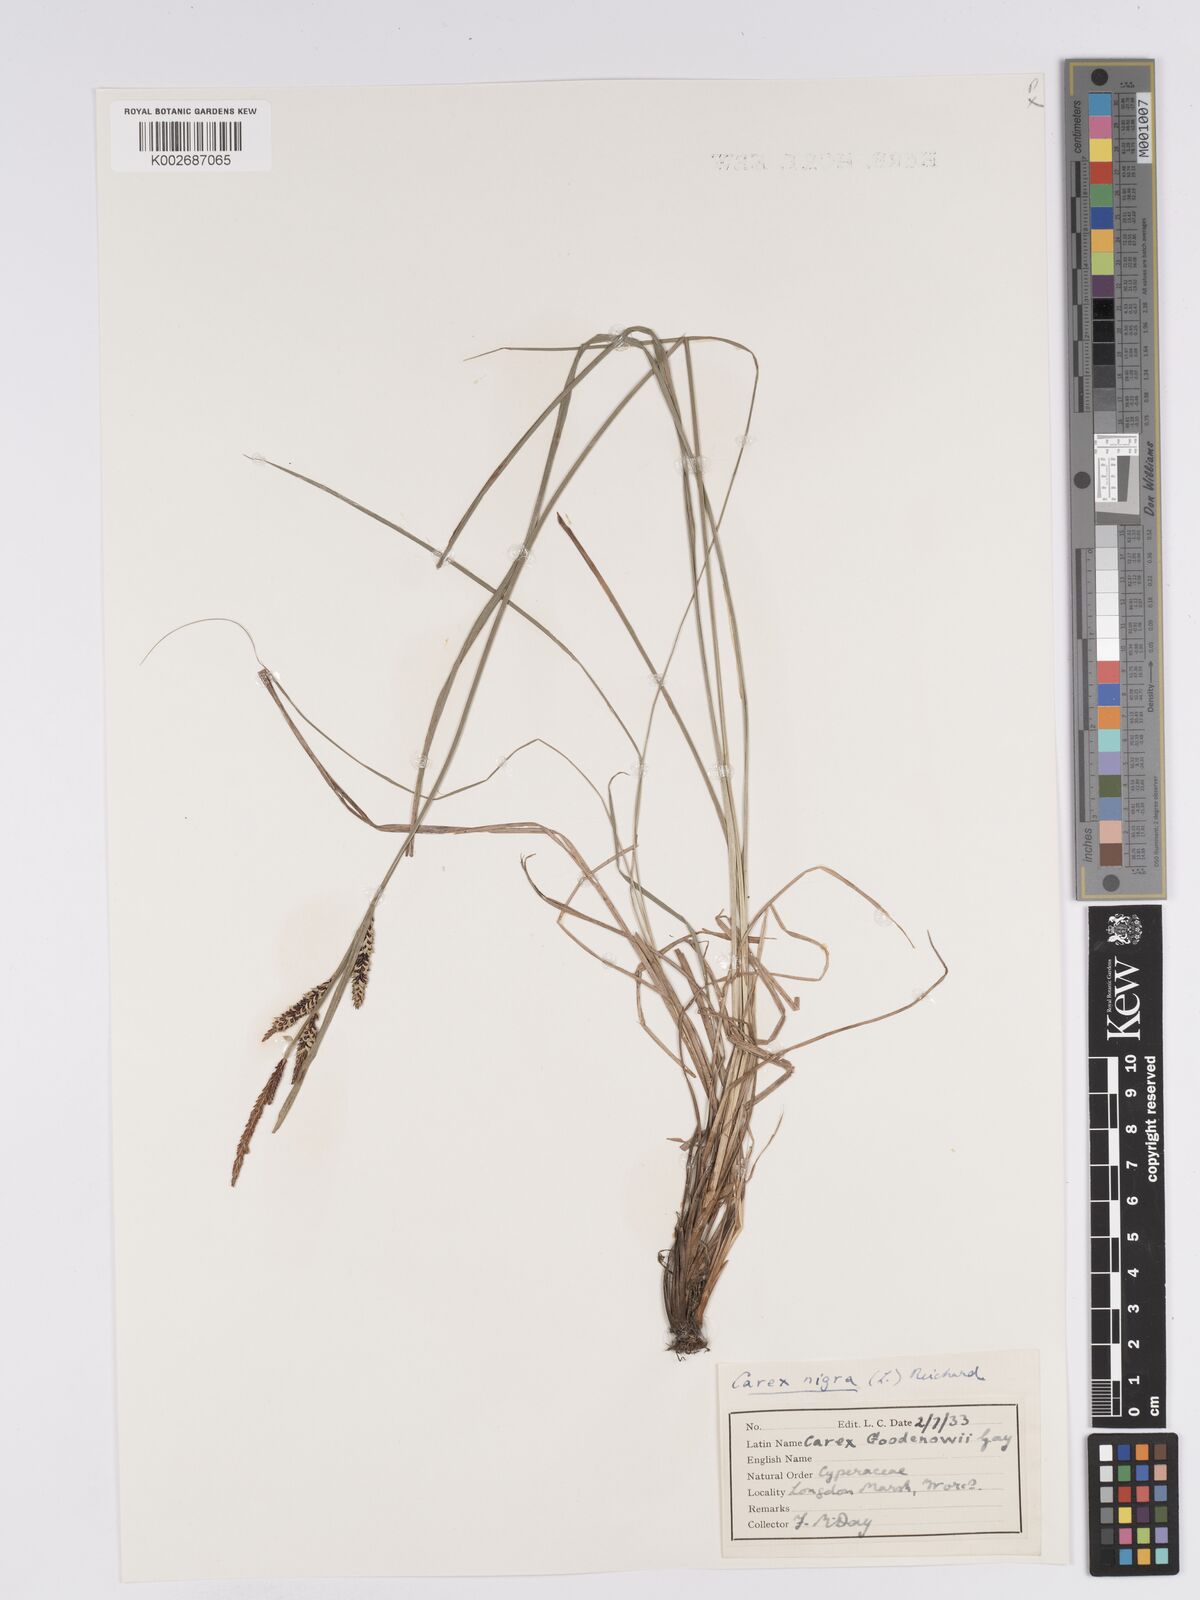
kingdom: Plantae
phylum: Tracheophyta
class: Liliopsida
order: Poales
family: Cyperaceae
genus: Carex
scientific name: Carex nigra
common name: Common sedge
